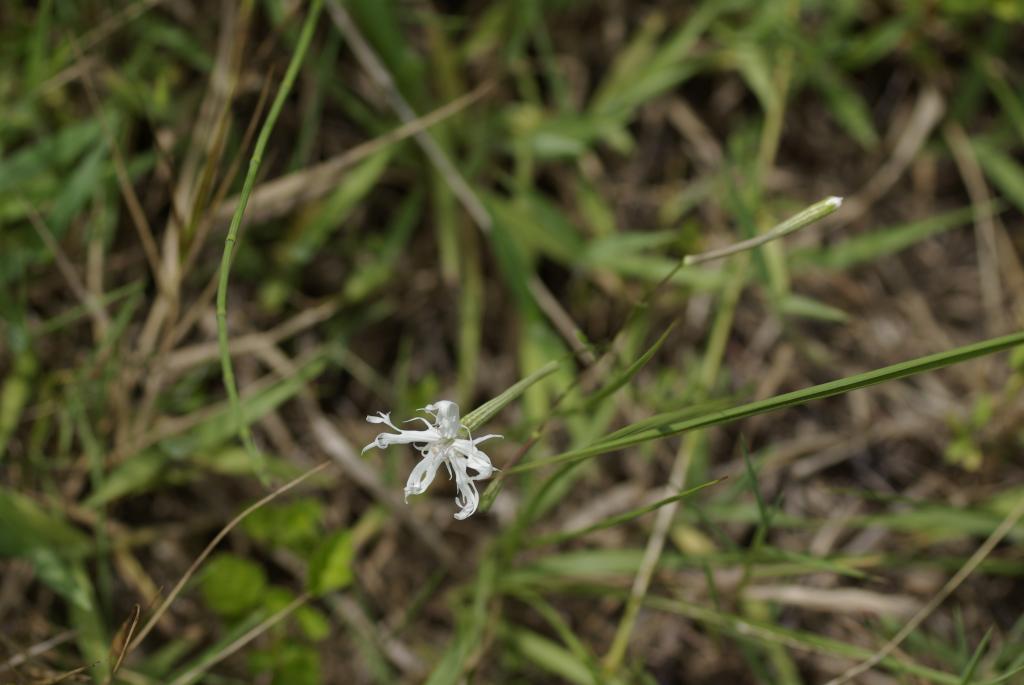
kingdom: Plantae
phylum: Tracheophyta
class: Magnoliopsida
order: Caryophyllales
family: Caryophyllaceae
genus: Silene
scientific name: Silene fortunei
